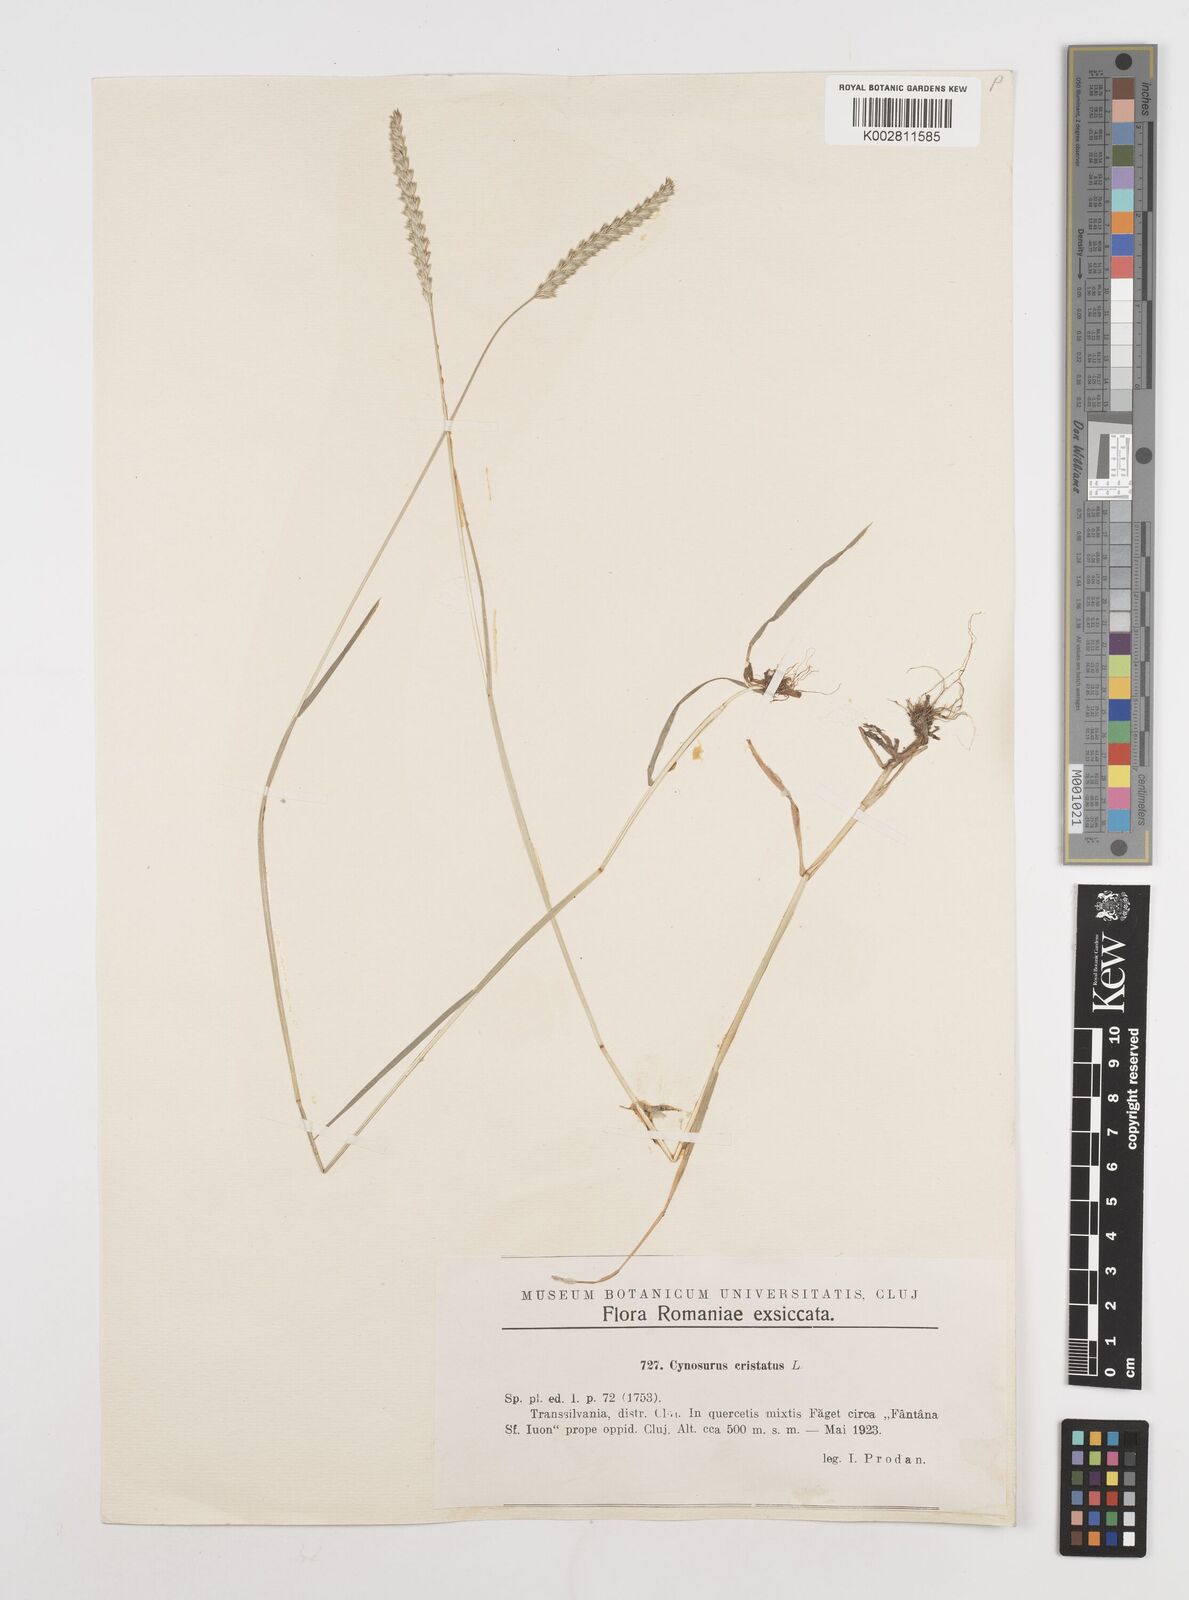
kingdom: Plantae
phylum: Tracheophyta
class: Liliopsida
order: Poales
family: Poaceae
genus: Cynosurus
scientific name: Cynosurus cristatus
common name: Crested dog's-tail
